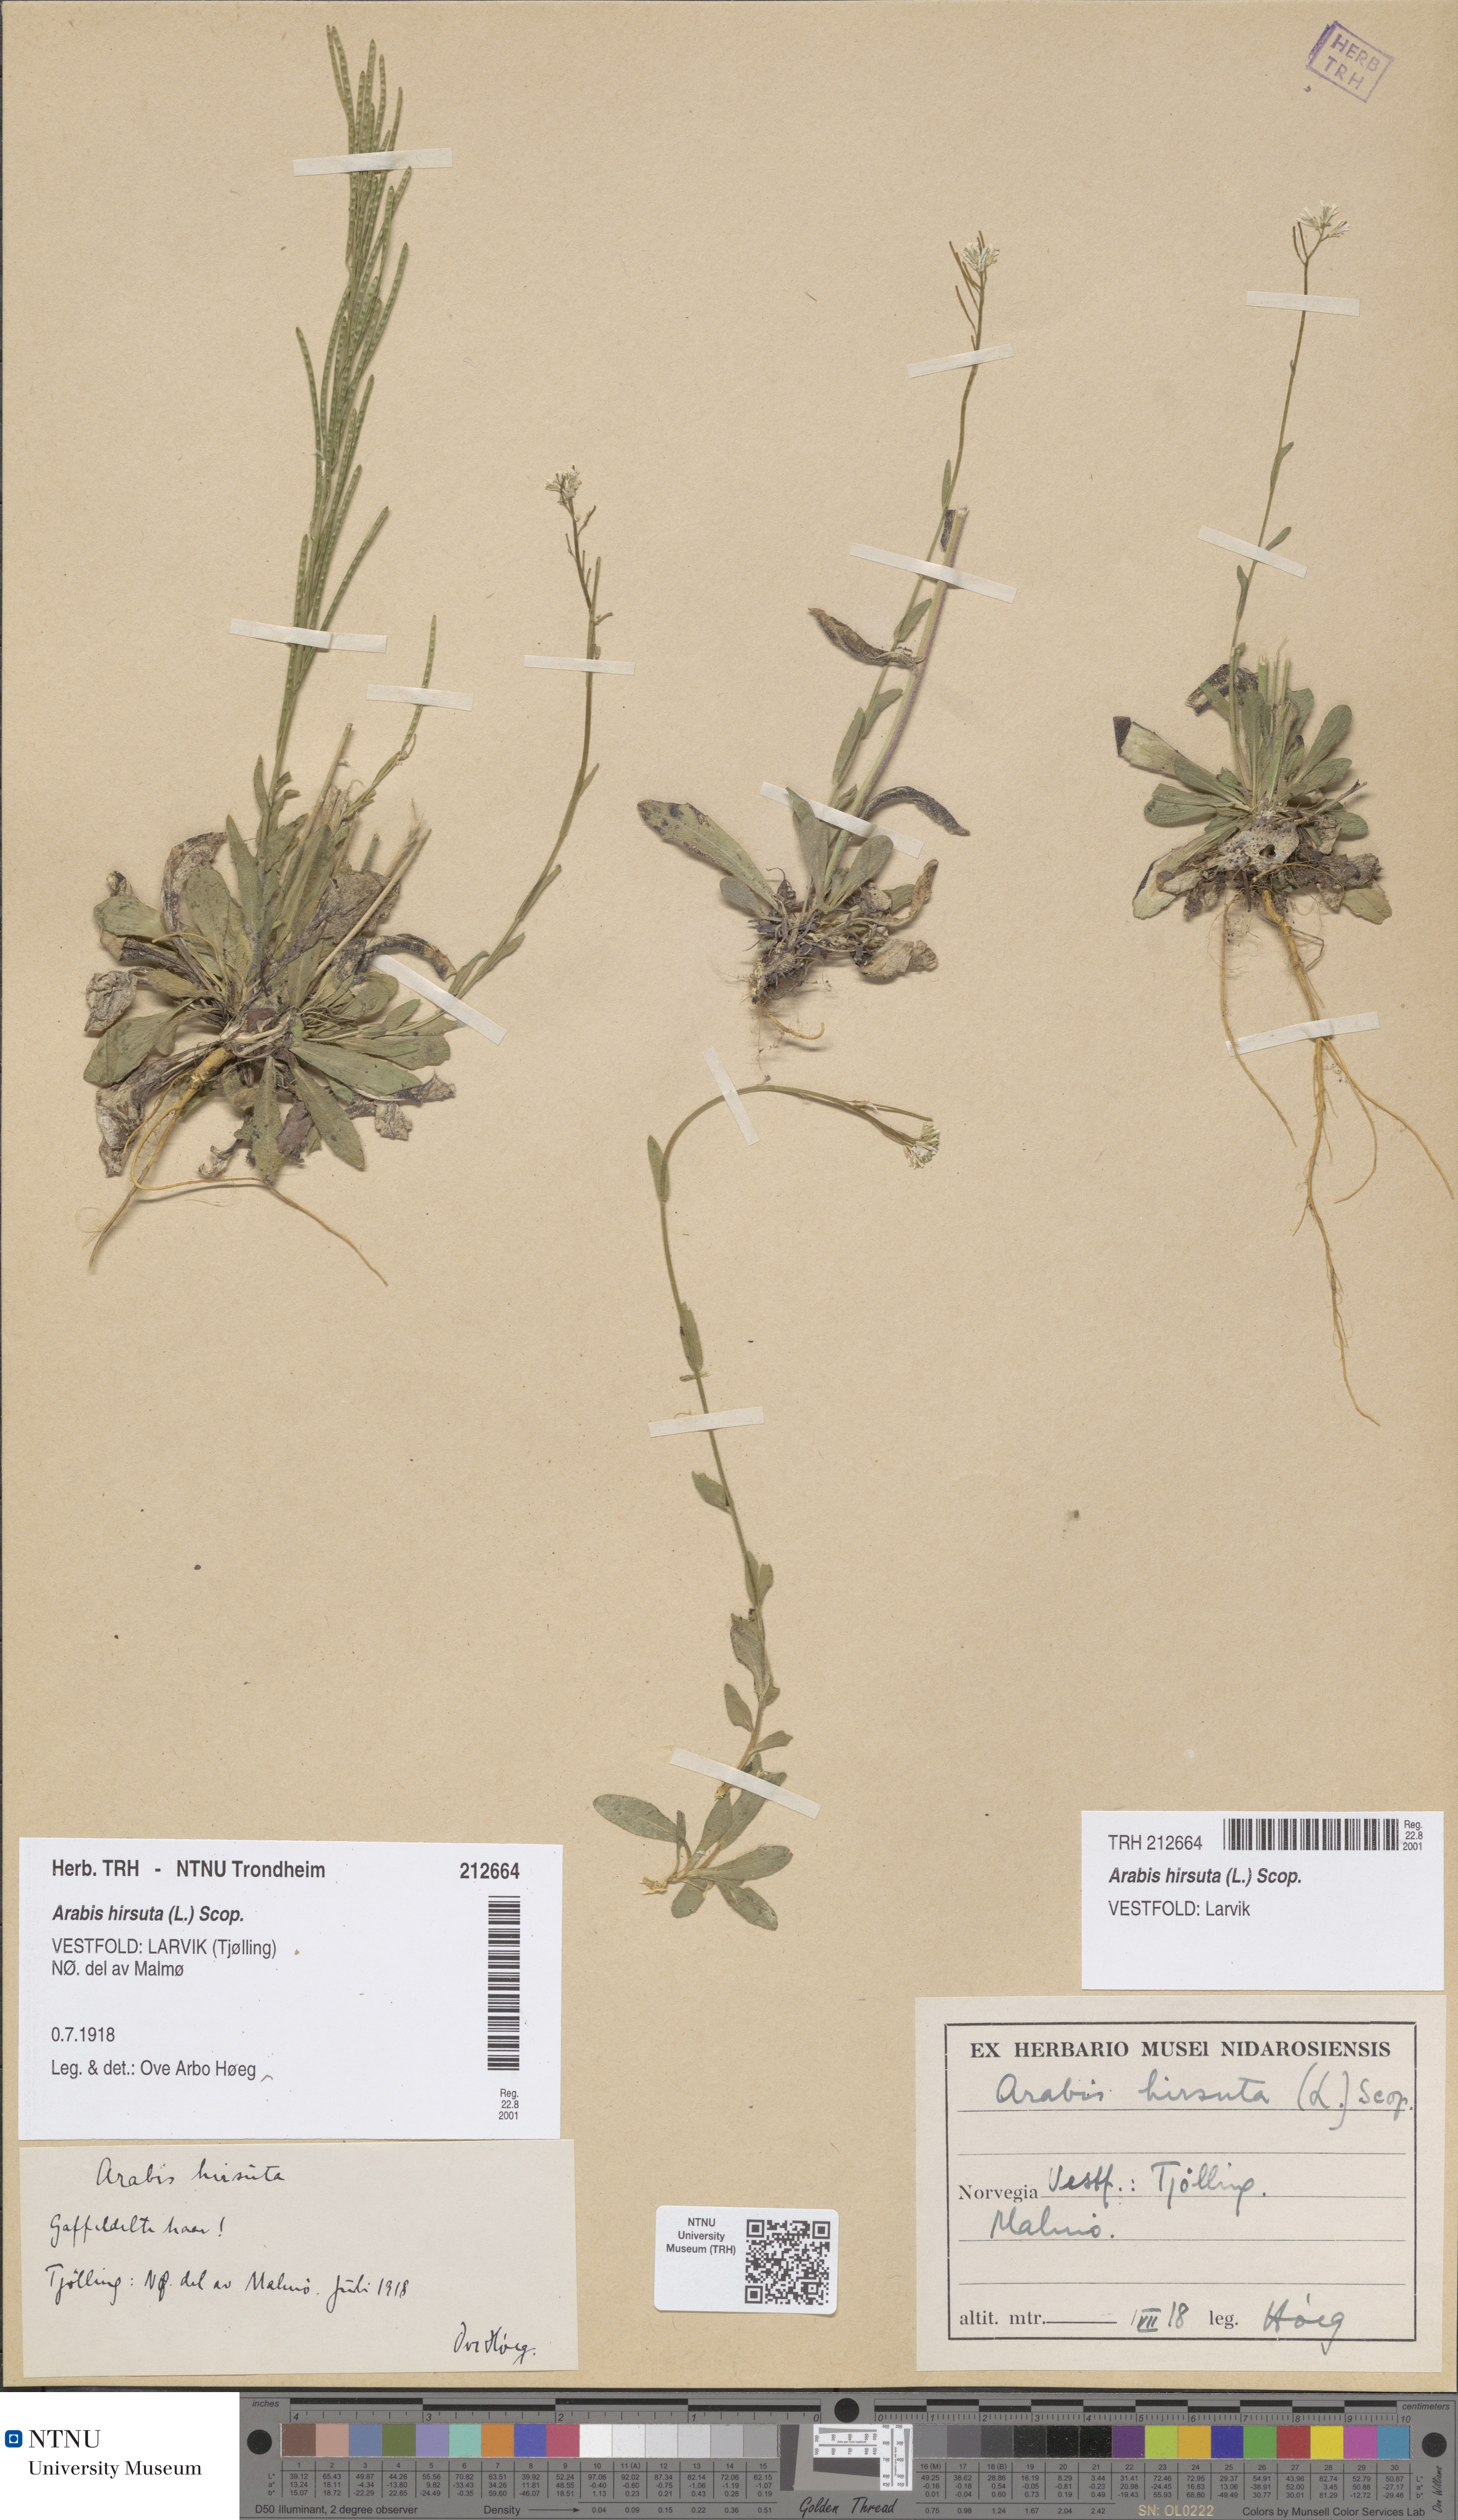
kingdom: Plantae
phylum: Tracheophyta
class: Magnoliopsida
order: Brassicales
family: Brassicaceae
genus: Arabis
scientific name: Arabis hirsuta
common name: Hairy rock-cress
